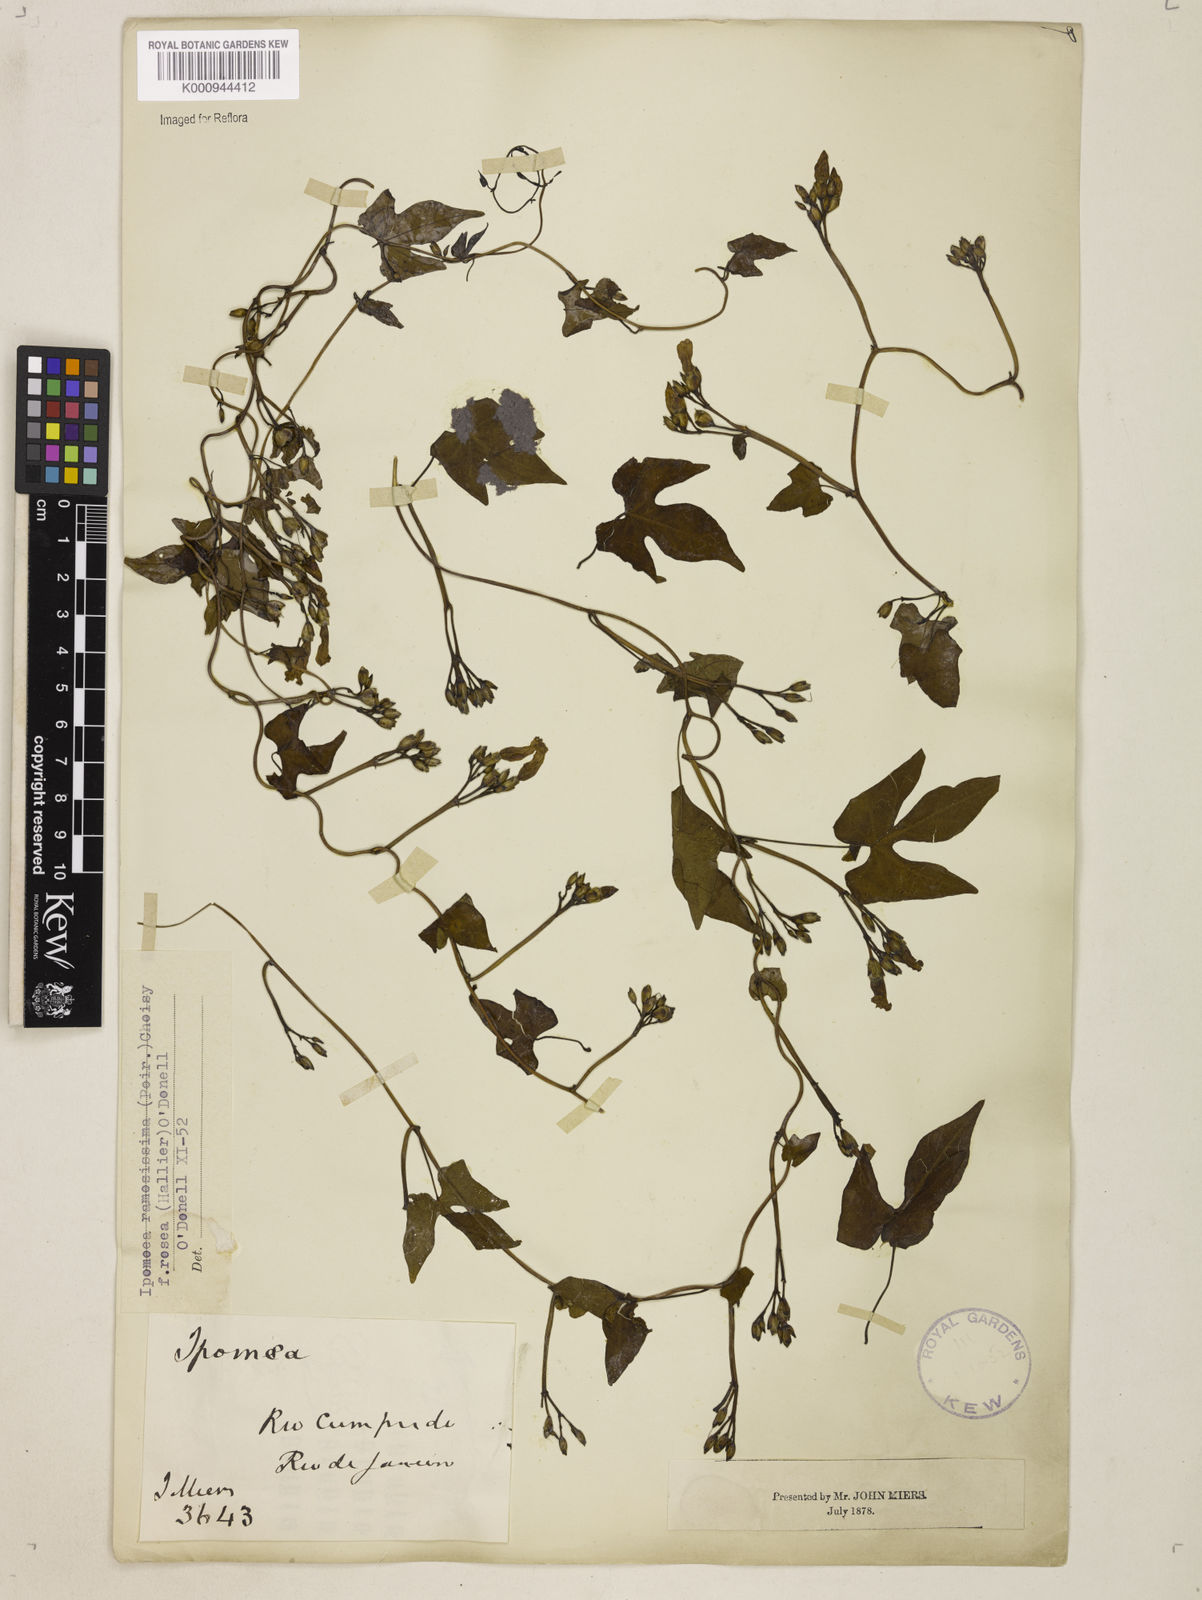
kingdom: Plantae
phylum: Tracheophyta
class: Magnoliopsida
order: Solanales
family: Convolvulaceae
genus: Ipomoea
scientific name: Ipomoea ramosissima
